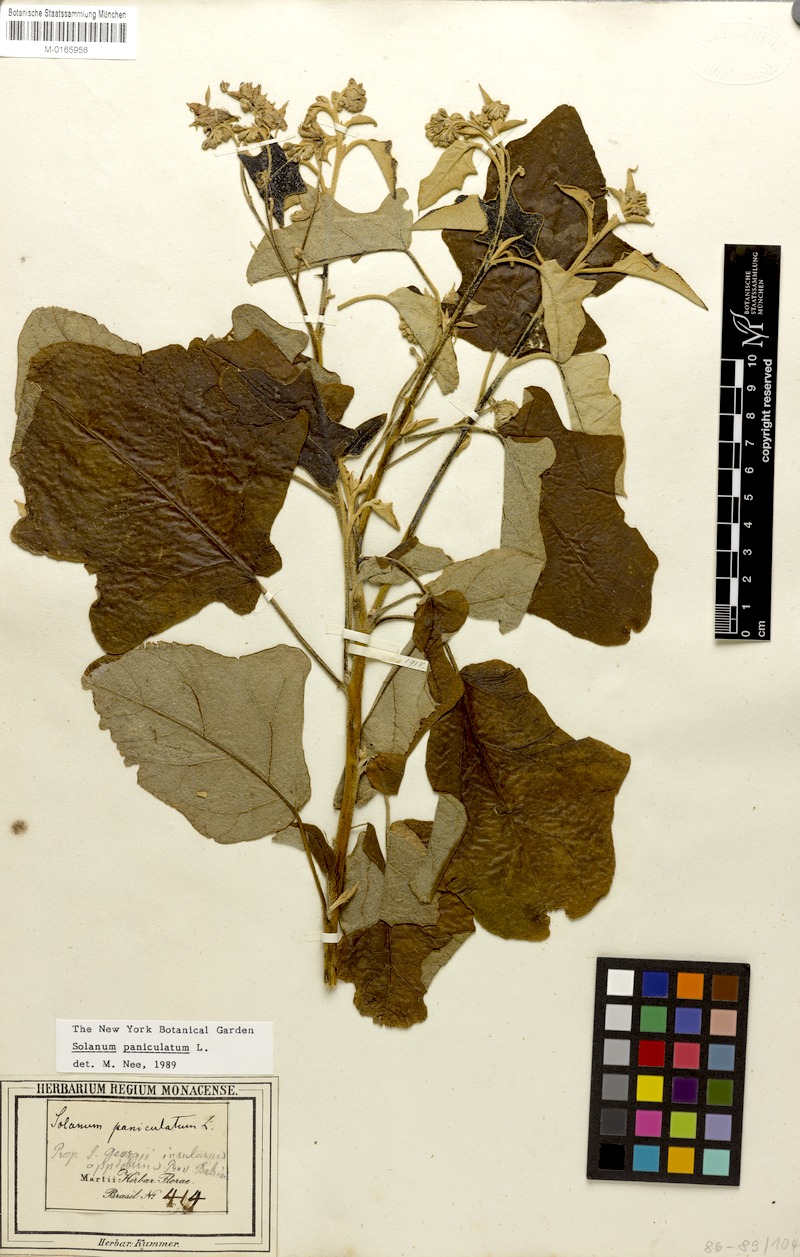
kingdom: Plantae
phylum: Tracheophyta
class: Magnoliopsida
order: Solanales
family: Solanaceae
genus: Solanum
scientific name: Solanum paniculatum
